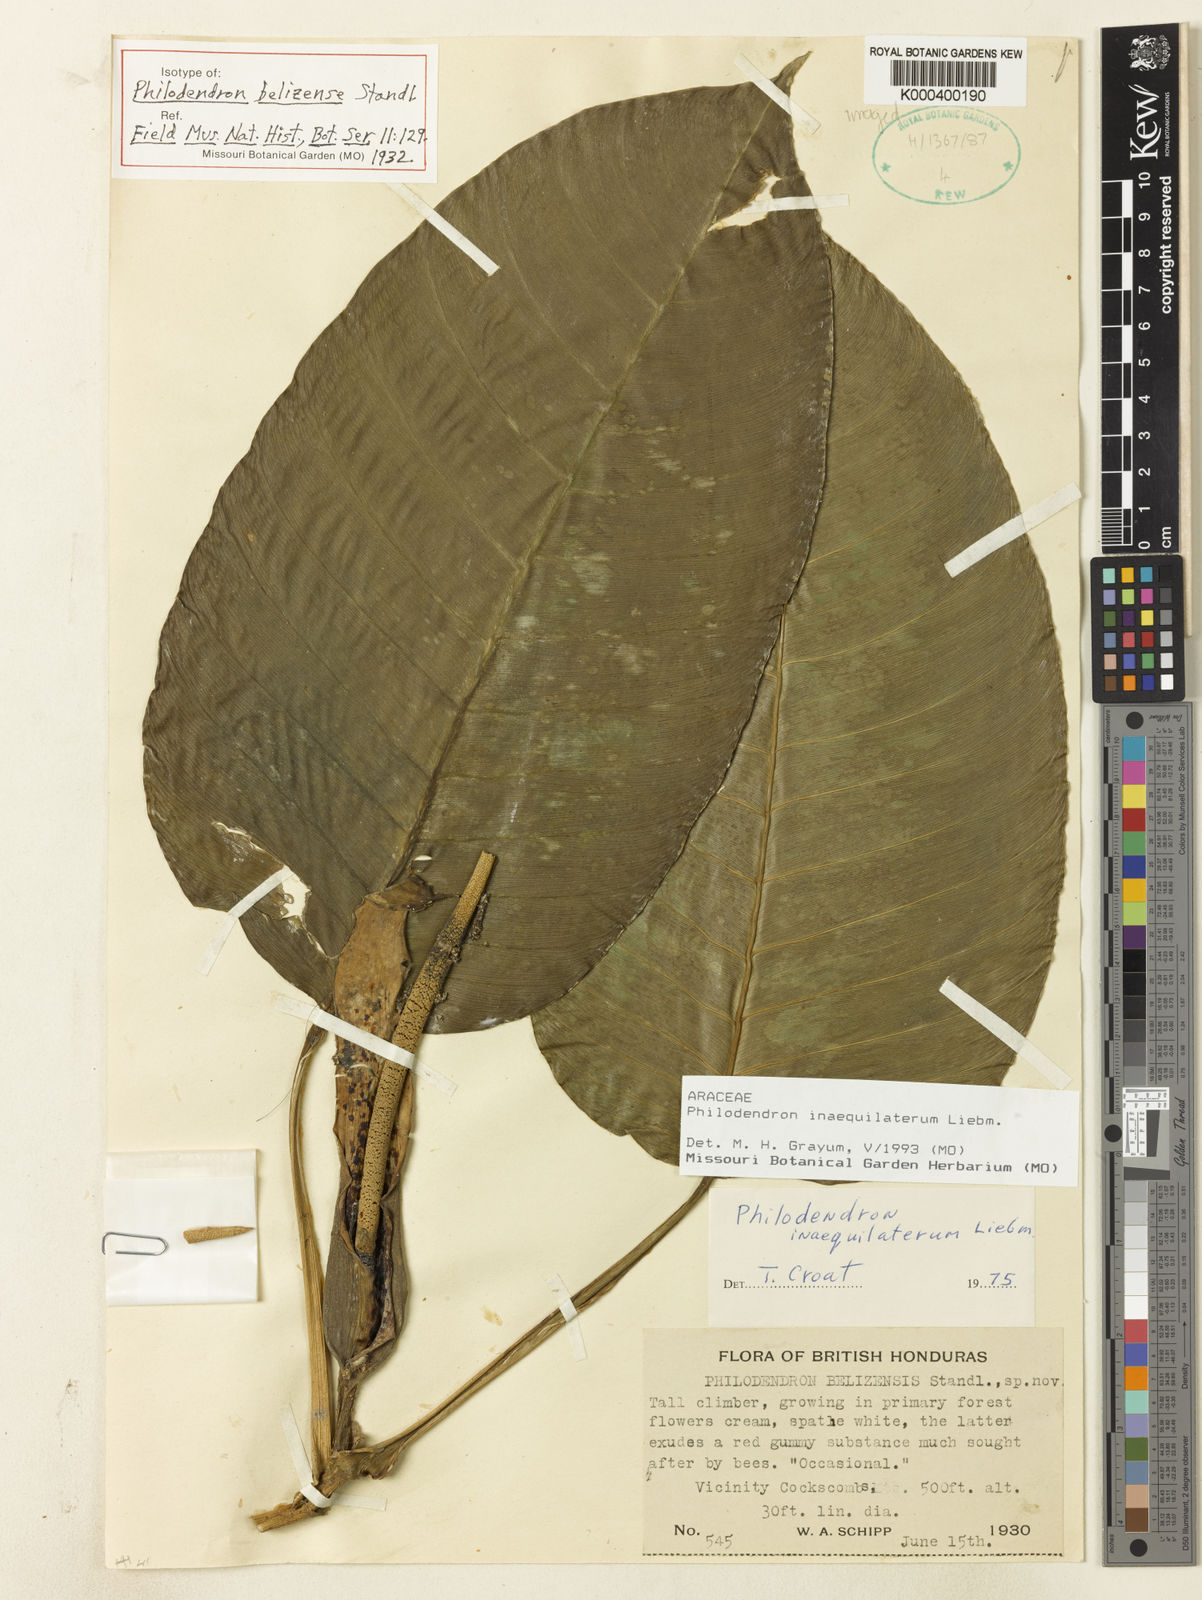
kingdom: Plantae
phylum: Tracheophyta
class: Liliopsida
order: Alismatales
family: Araceae
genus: Philodendron
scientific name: Philodendron inaequilaterum
